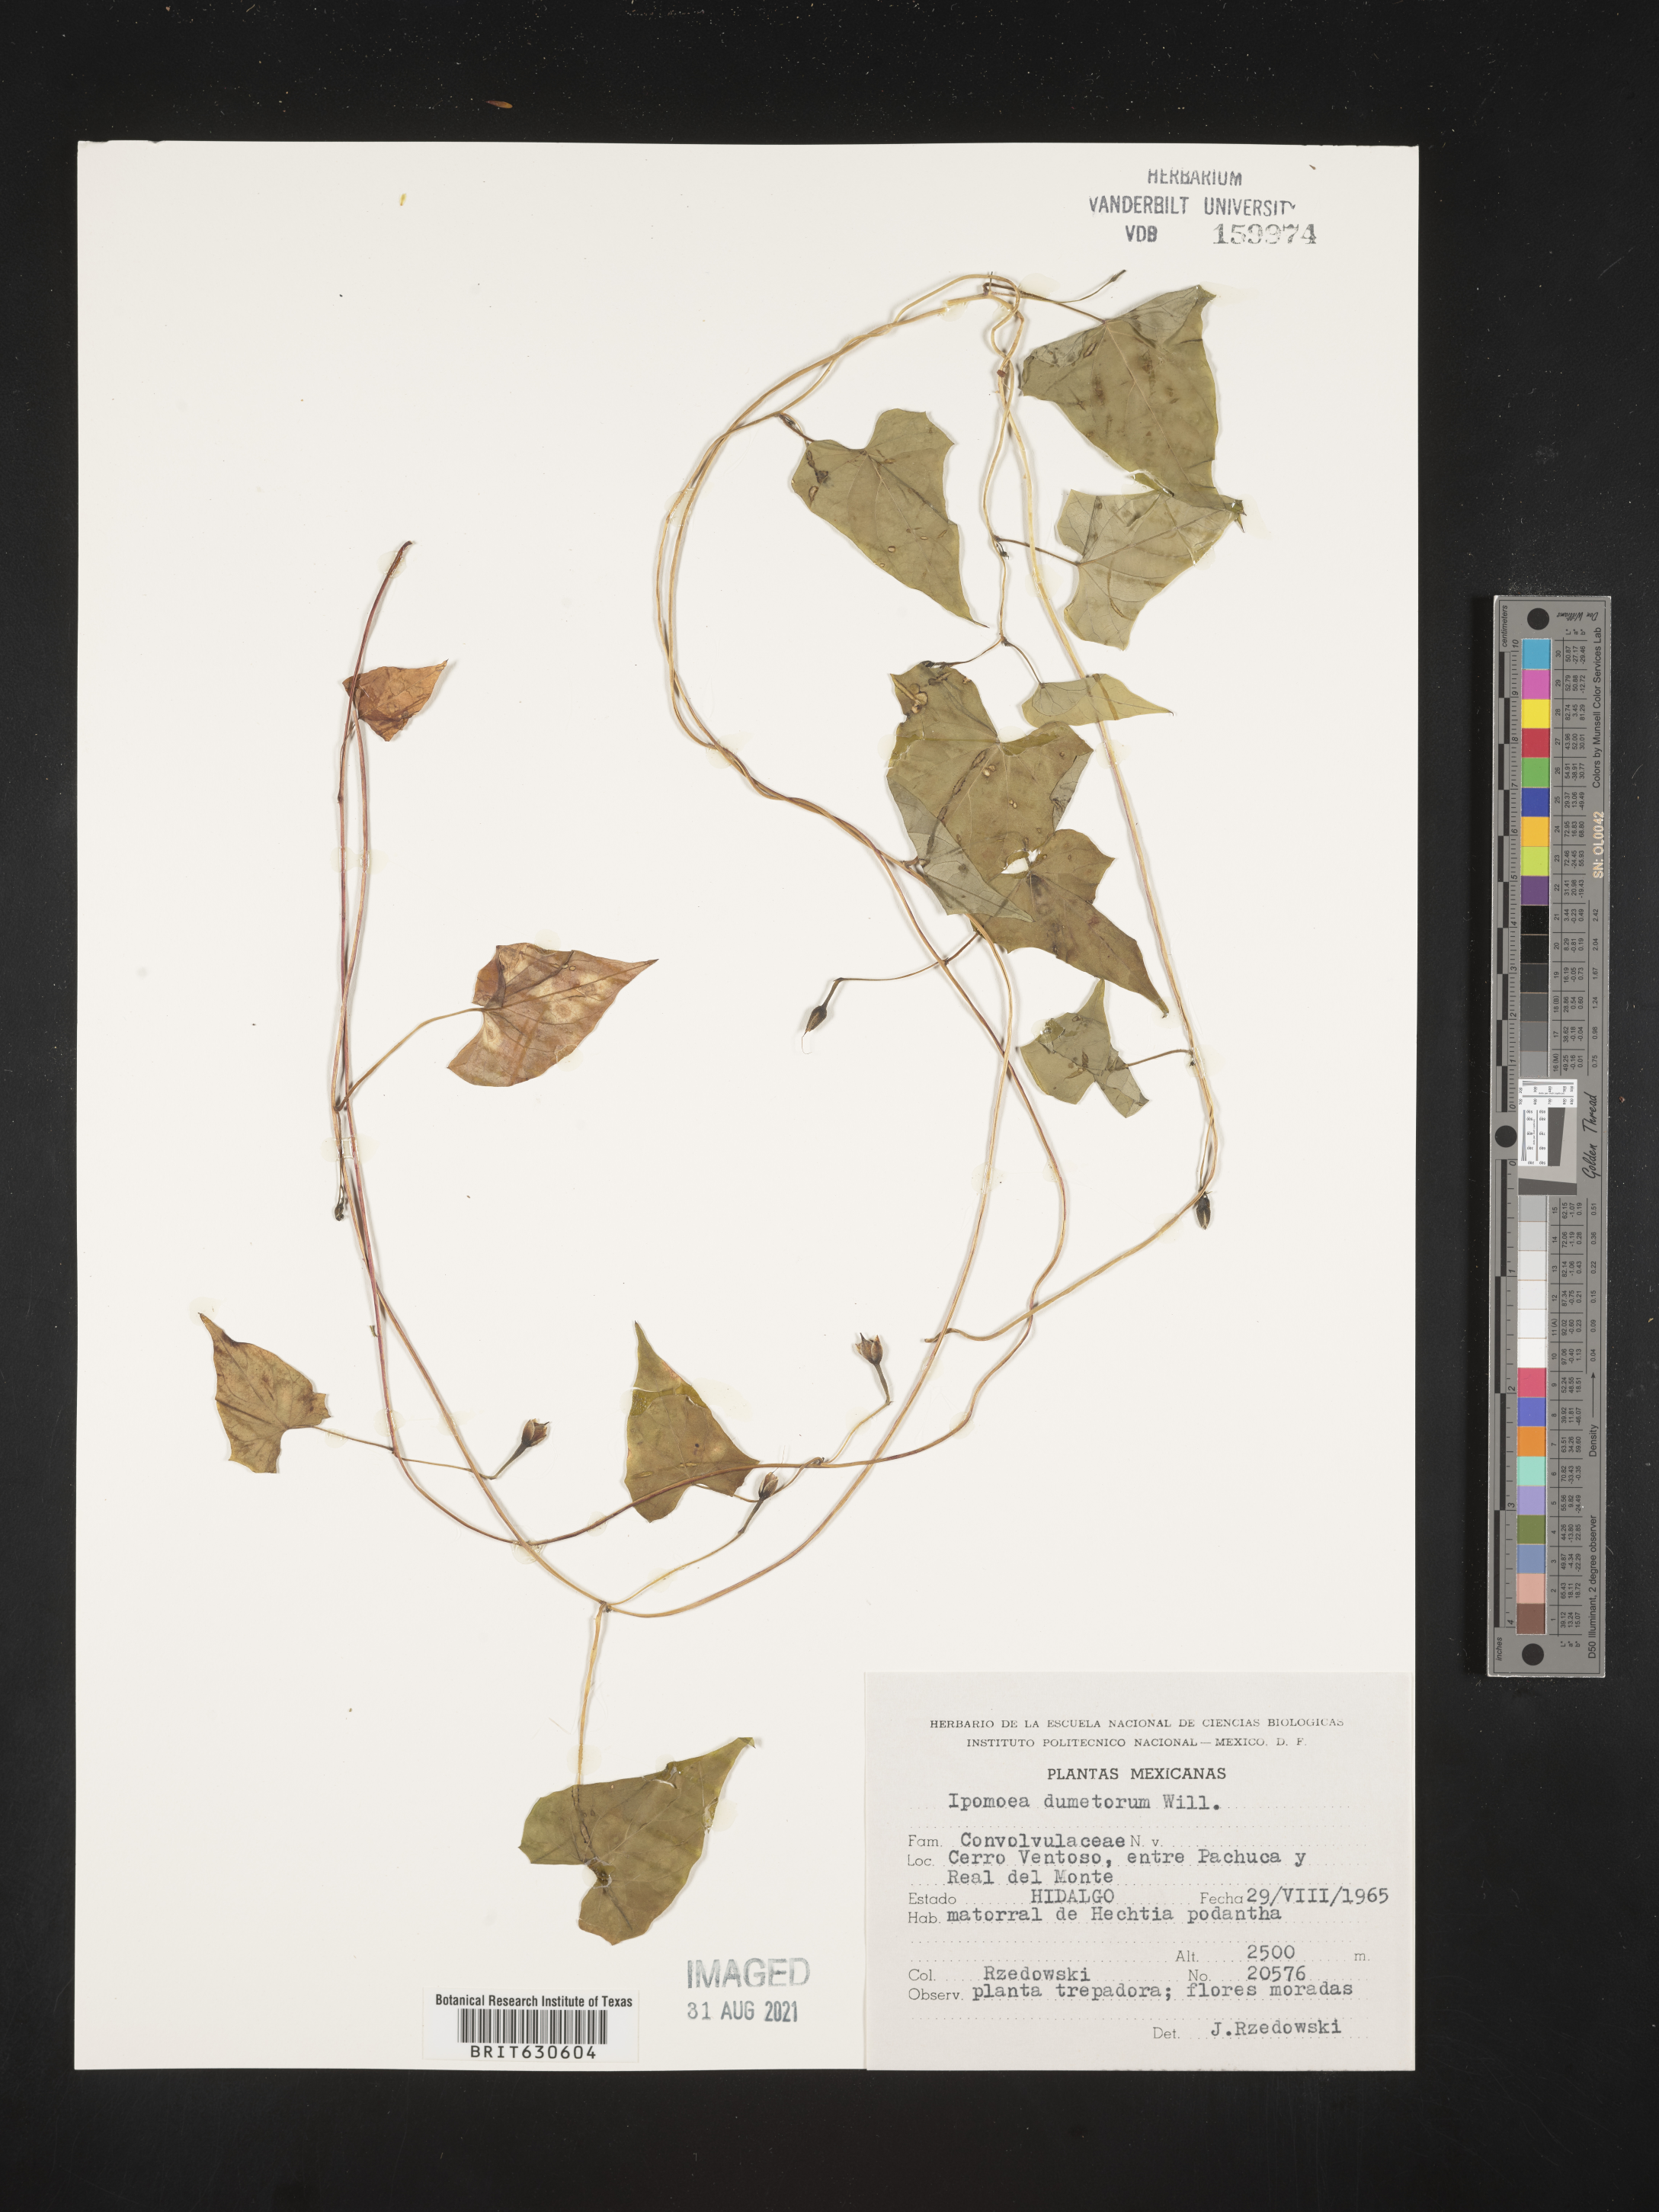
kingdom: Plantae
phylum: Tracheophyta
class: Magnoliopsida
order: Solanales
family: Convolvulaceae
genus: Ipomoea
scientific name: Ipomoea
